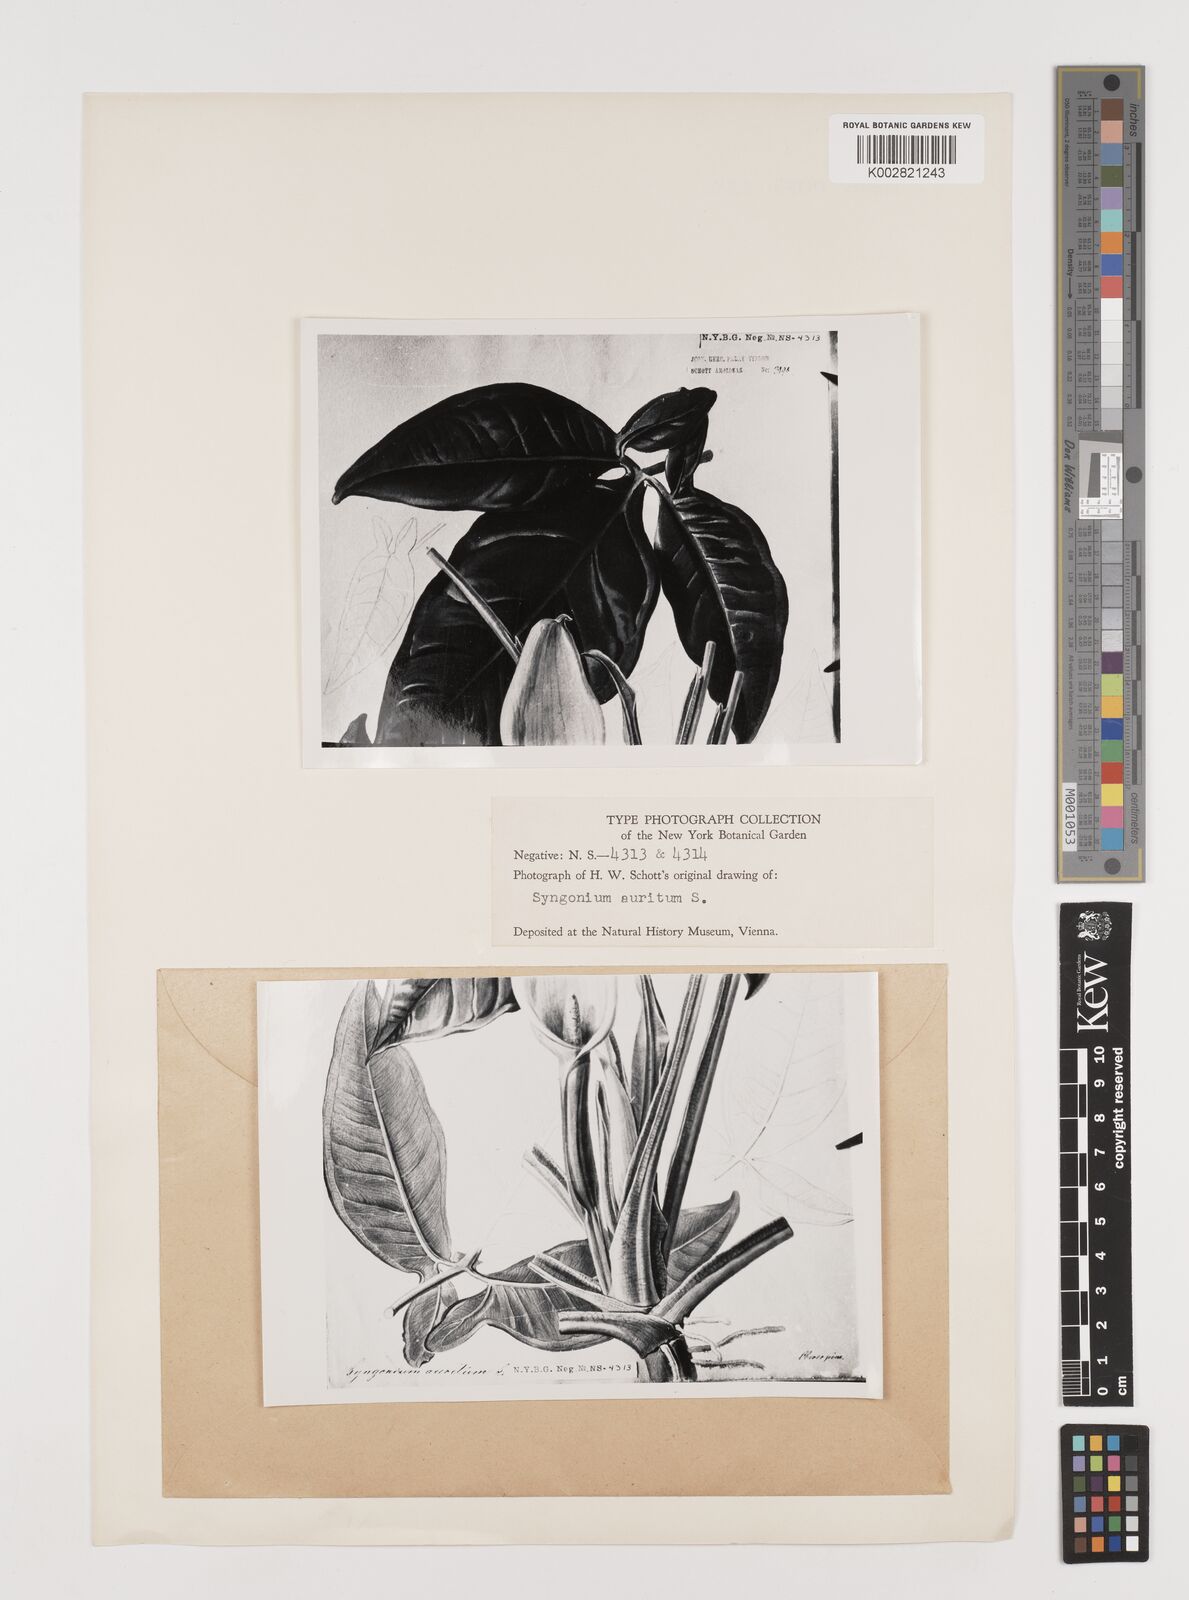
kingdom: Plantae
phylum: Tracheophyta
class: Liliopsida
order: Alismatales
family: Araceae
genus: Syngonium
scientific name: Syngonium auritum
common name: Five-fingers
